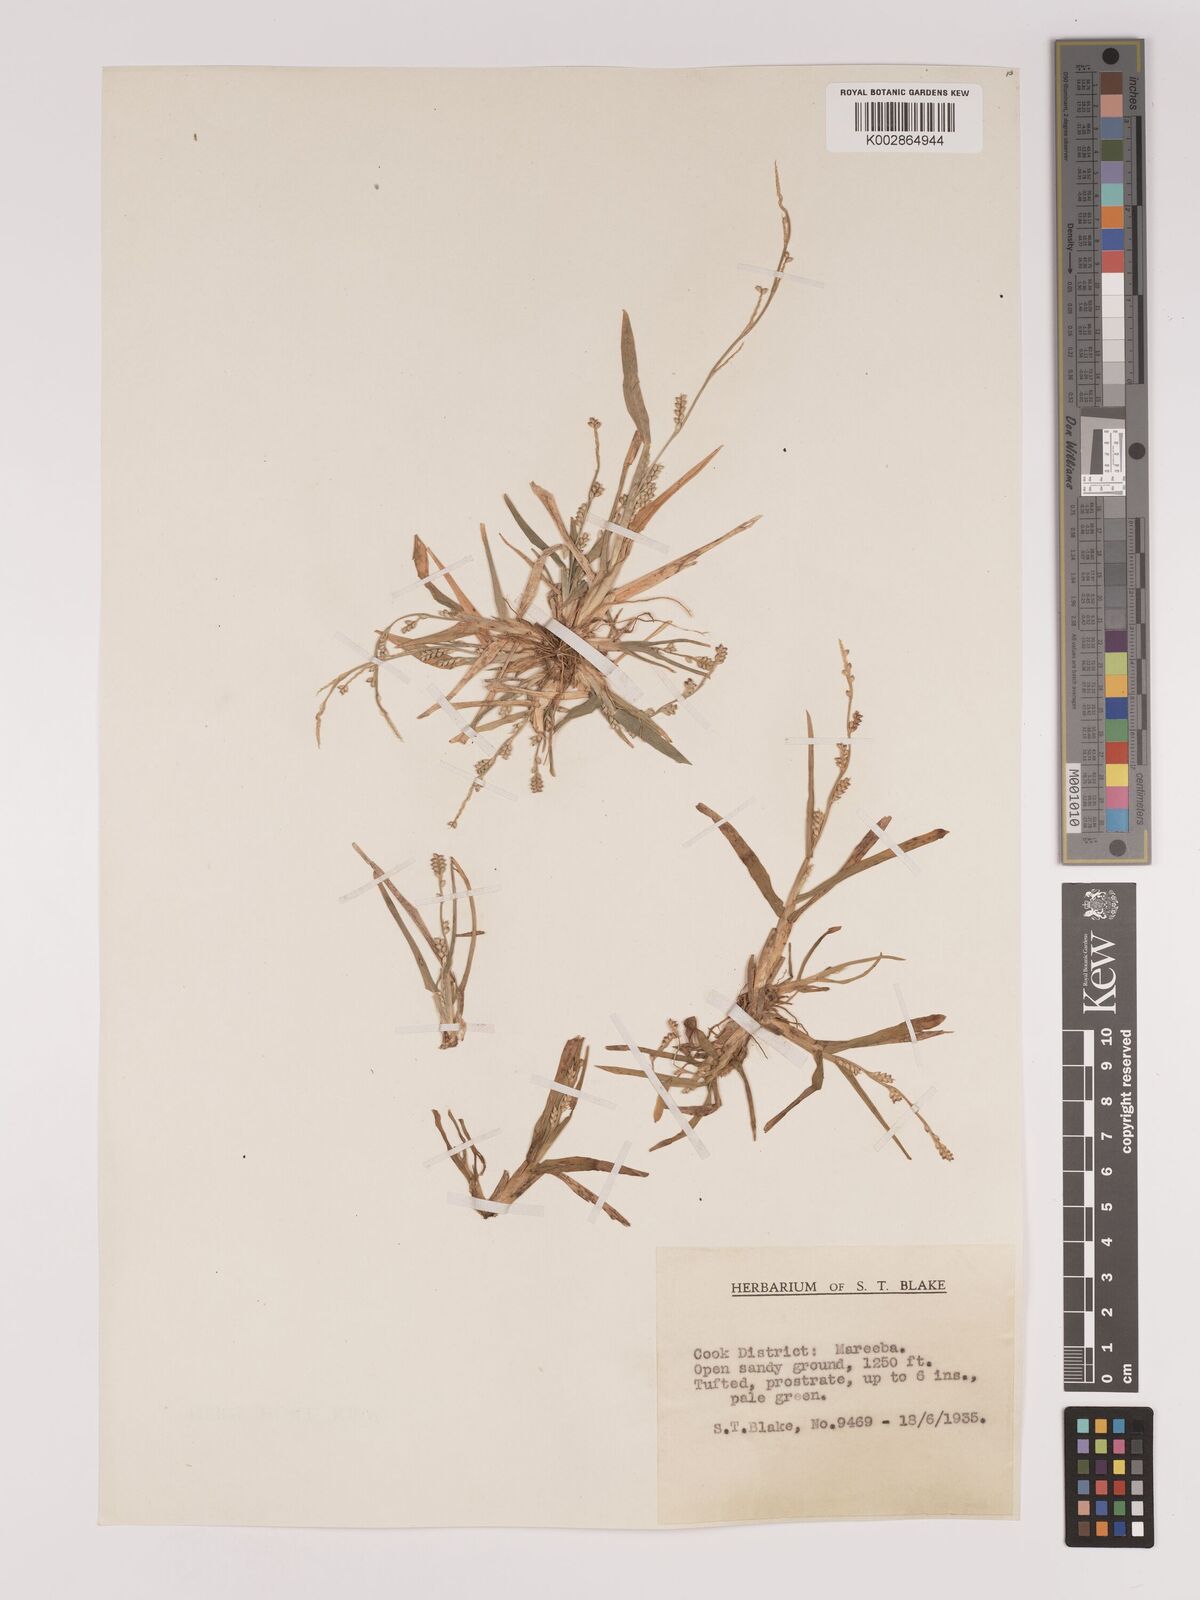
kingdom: Plantae
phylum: Tracheophyta
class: Liliopsida
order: Poales
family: Poaceae
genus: Setaria
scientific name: Setaria
